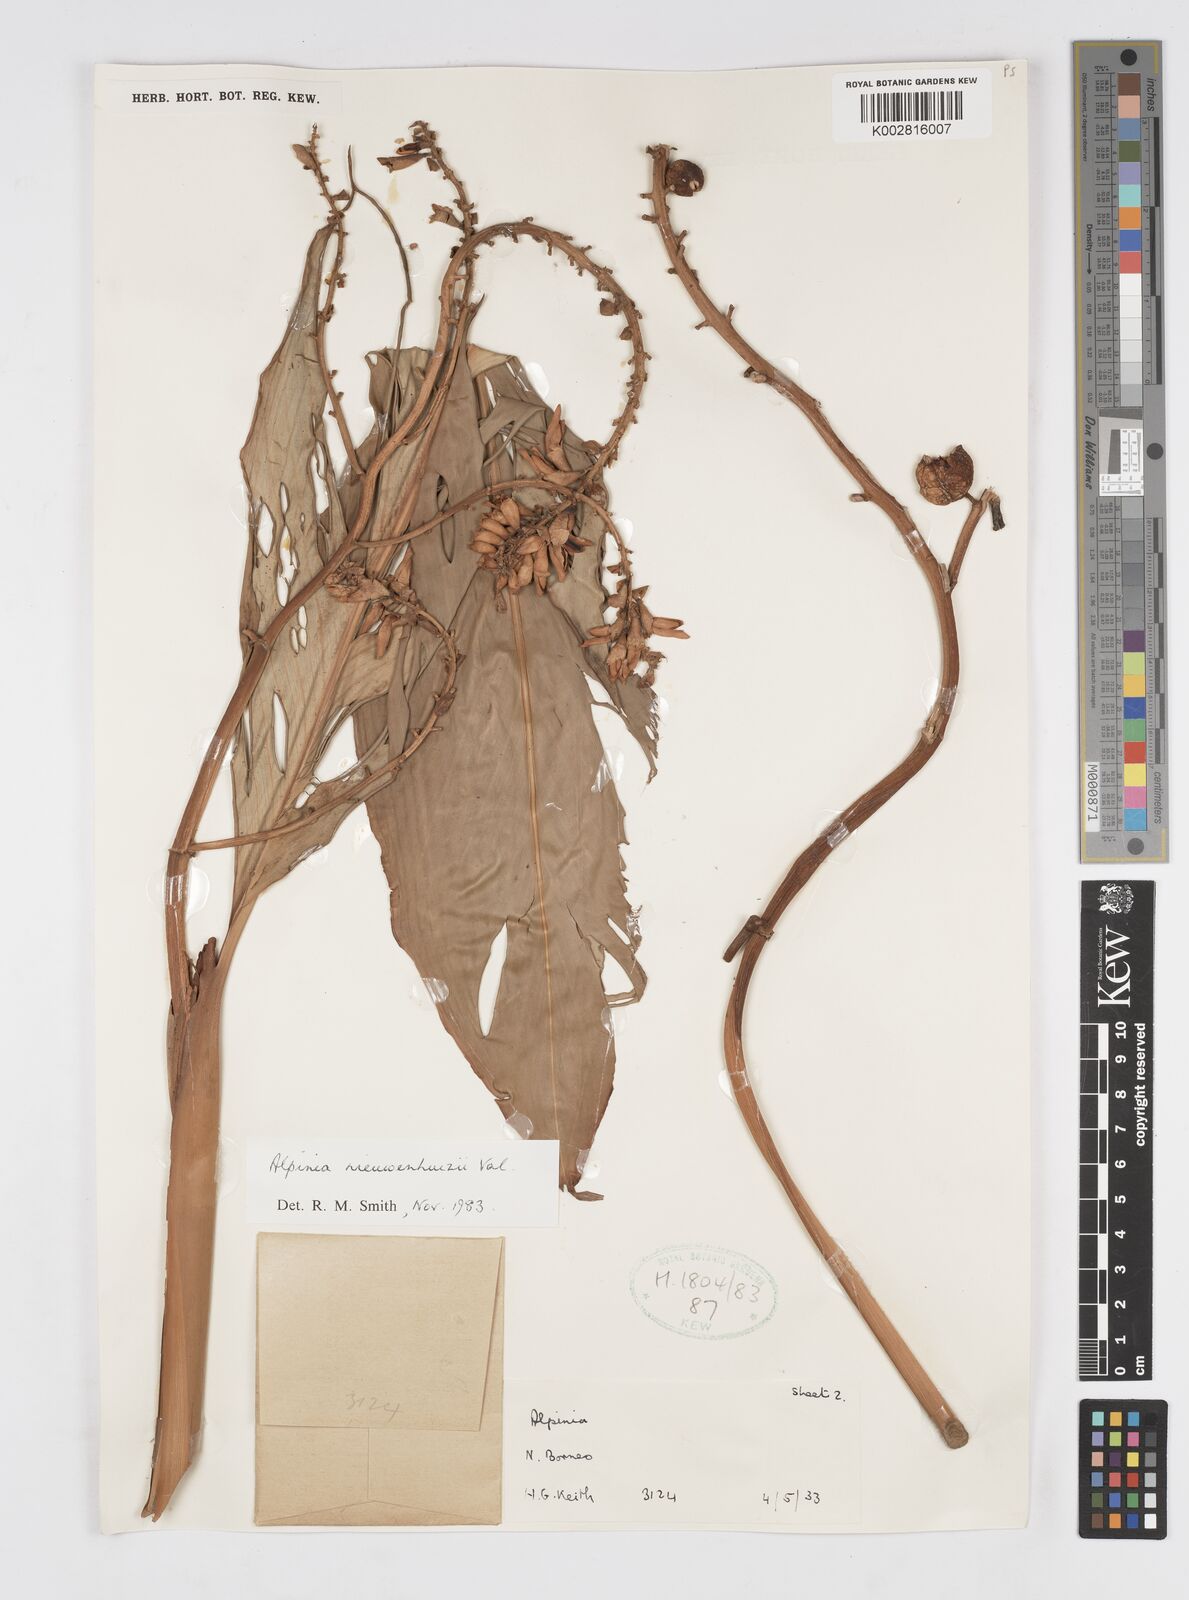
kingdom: Plantae
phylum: Tracheophyta
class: Liliopsida
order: Zingiberales
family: Zingiberaceae
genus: Alpinia
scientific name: Alpinia nieuwenhuizii
